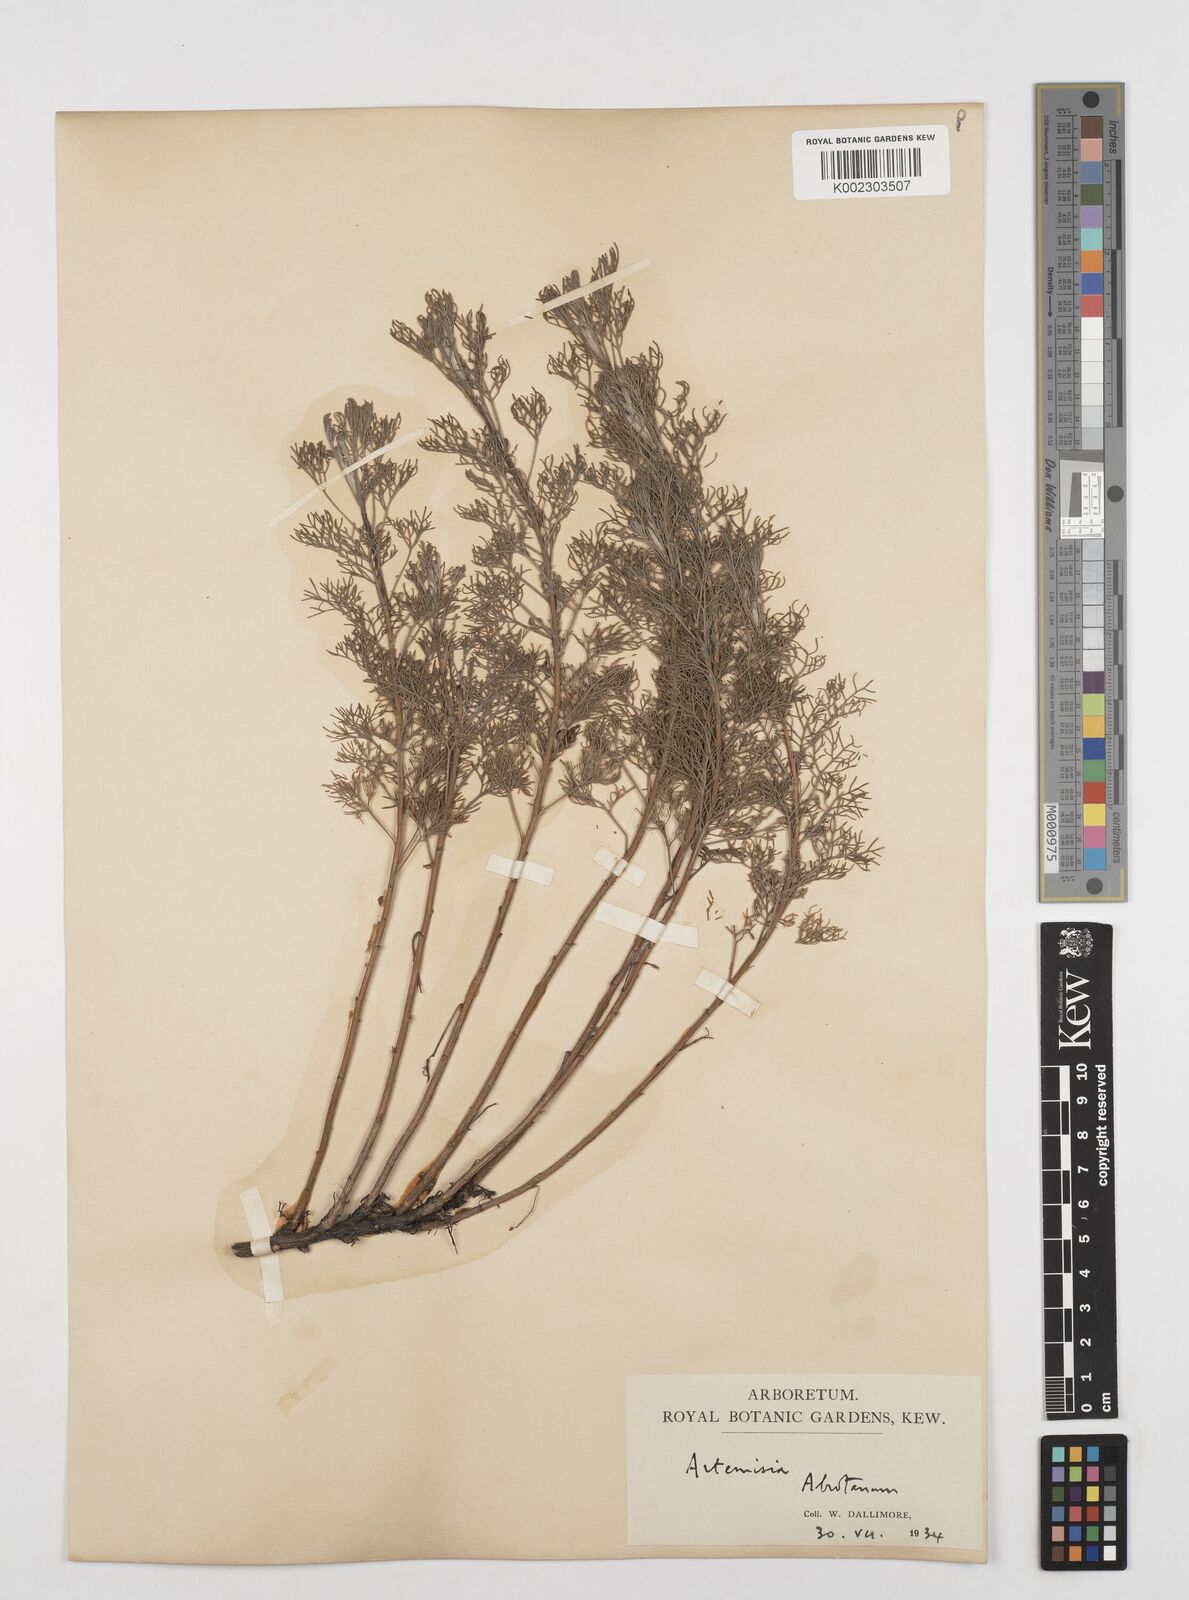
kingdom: Plantae
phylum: Tracheophyta
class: Magnoliopsida
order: Asterales
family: Asteraceae
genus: Artemisia
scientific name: Artemisia abrotanum
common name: Southernwood
